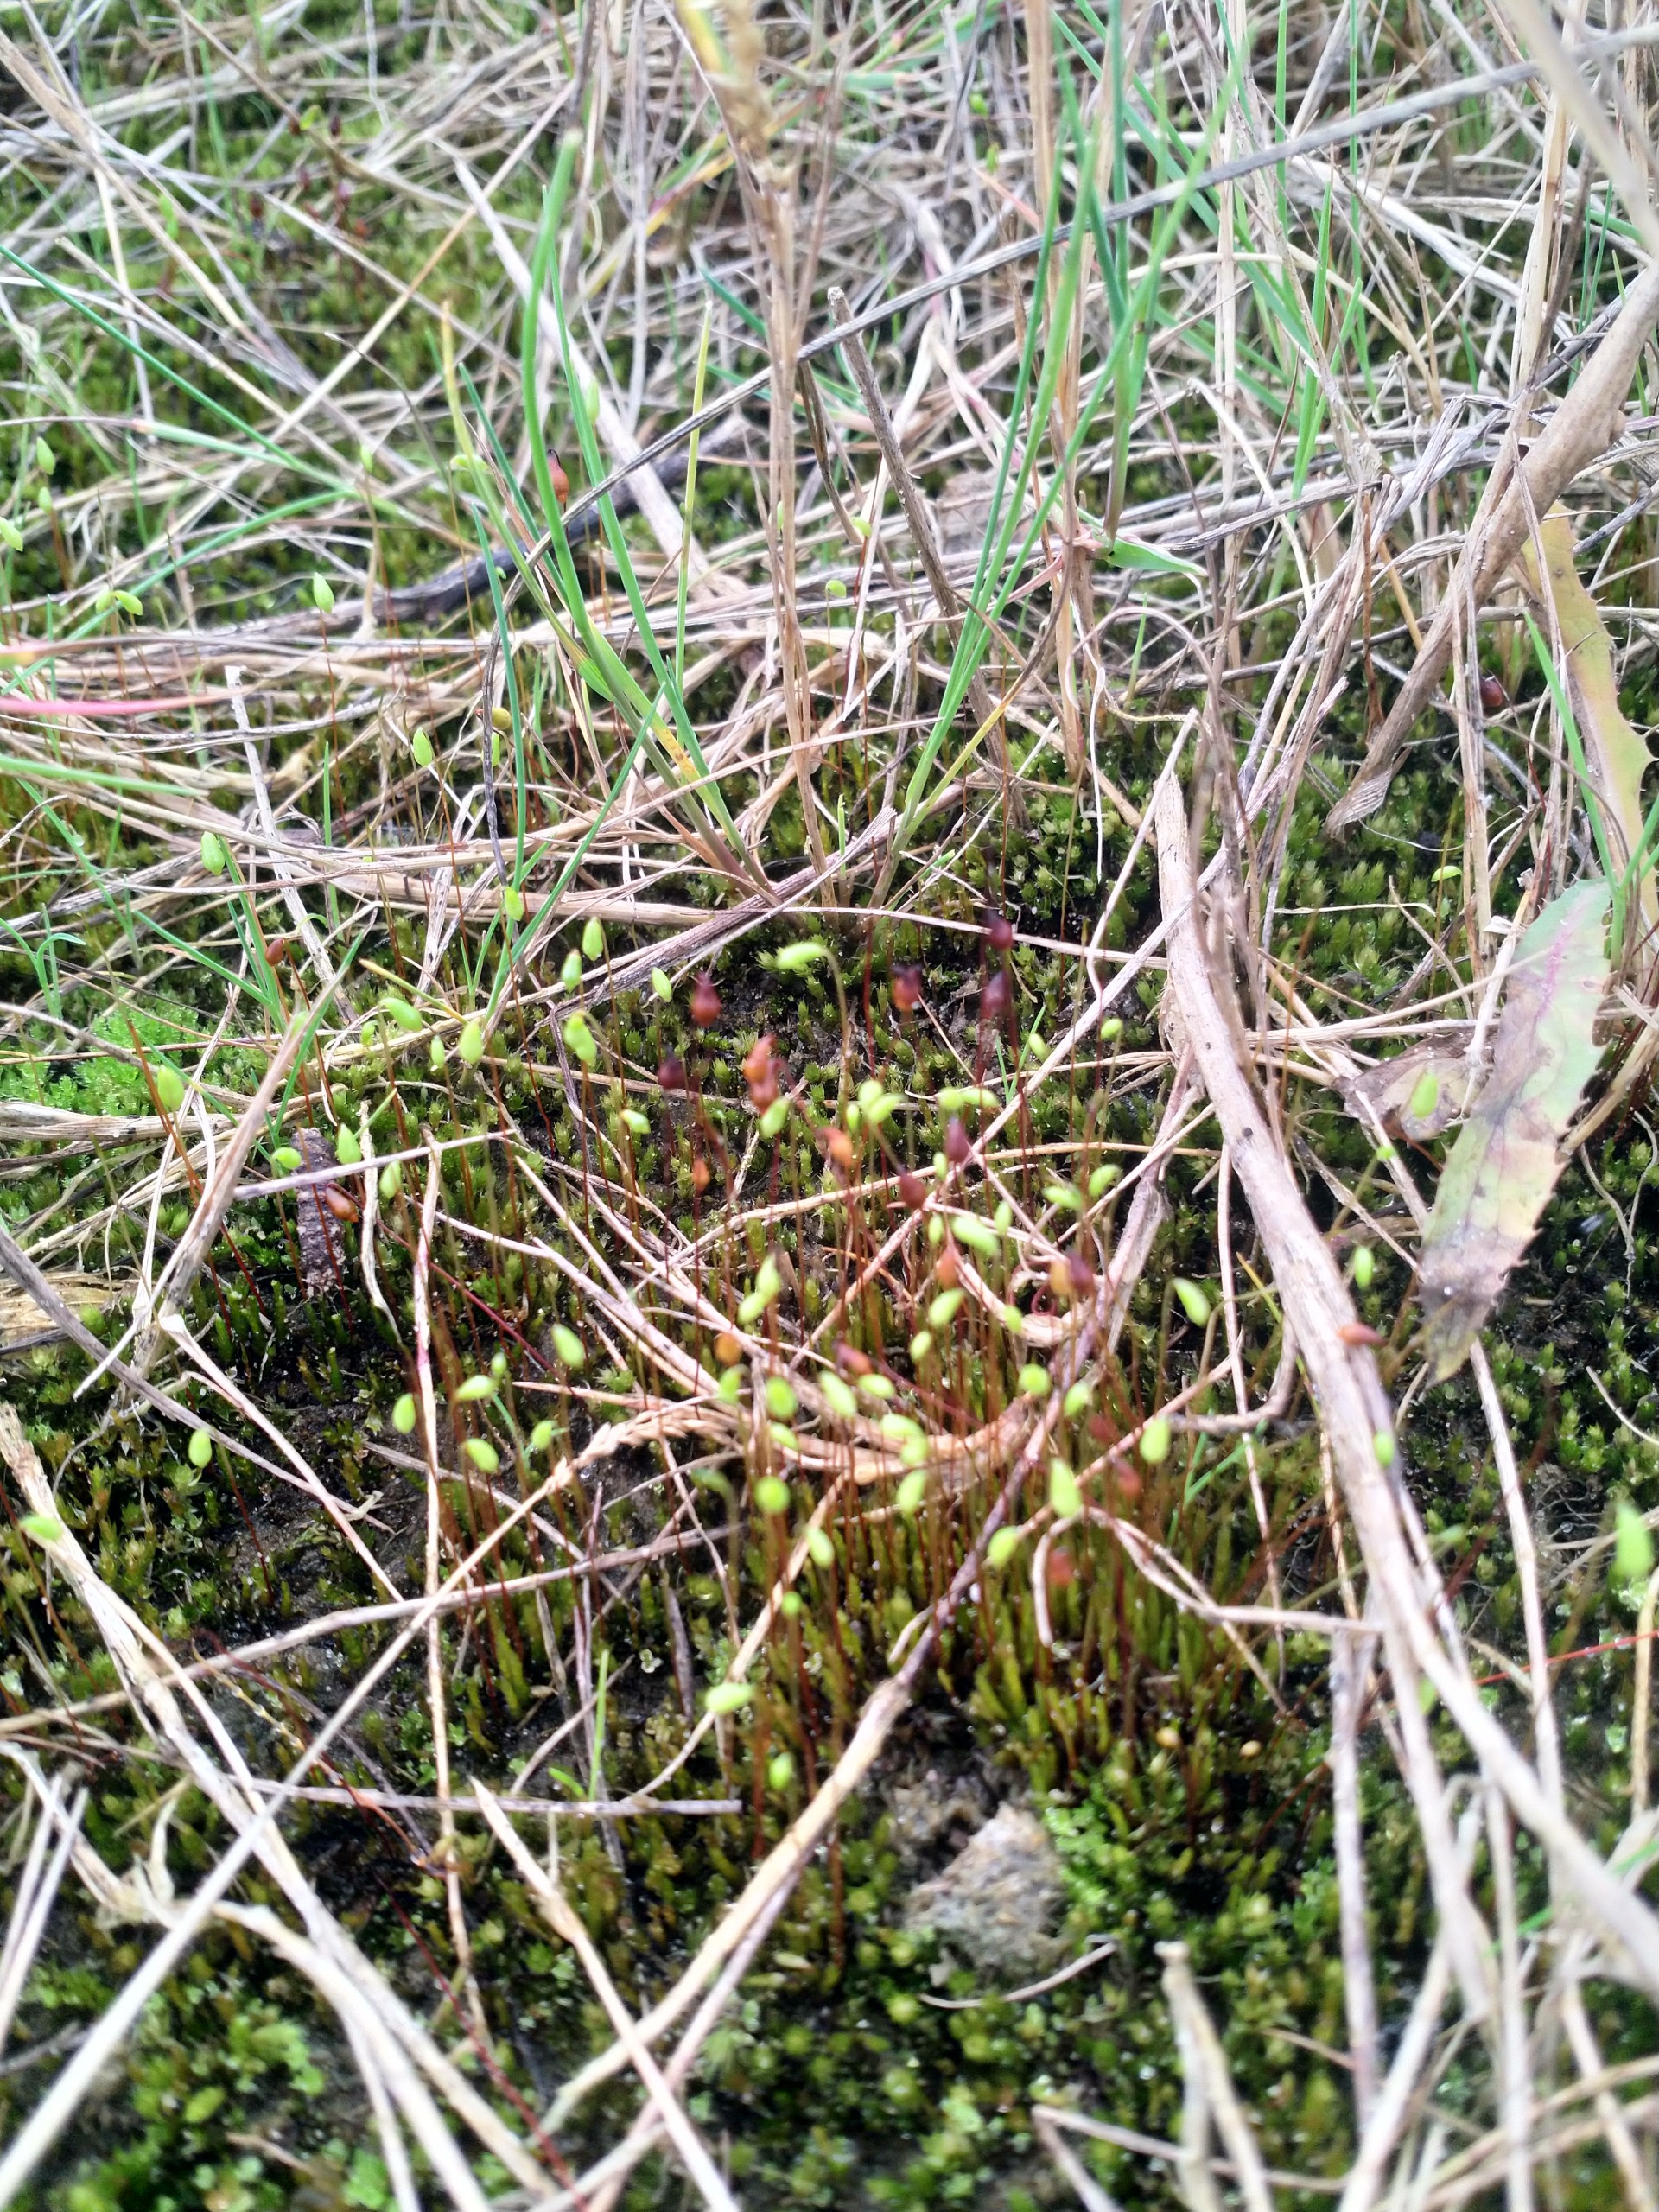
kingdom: Plantae
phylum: Bryophyta
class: Bryopsida
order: Bryales
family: Bryaceae
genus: Bryum
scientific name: Bryum
